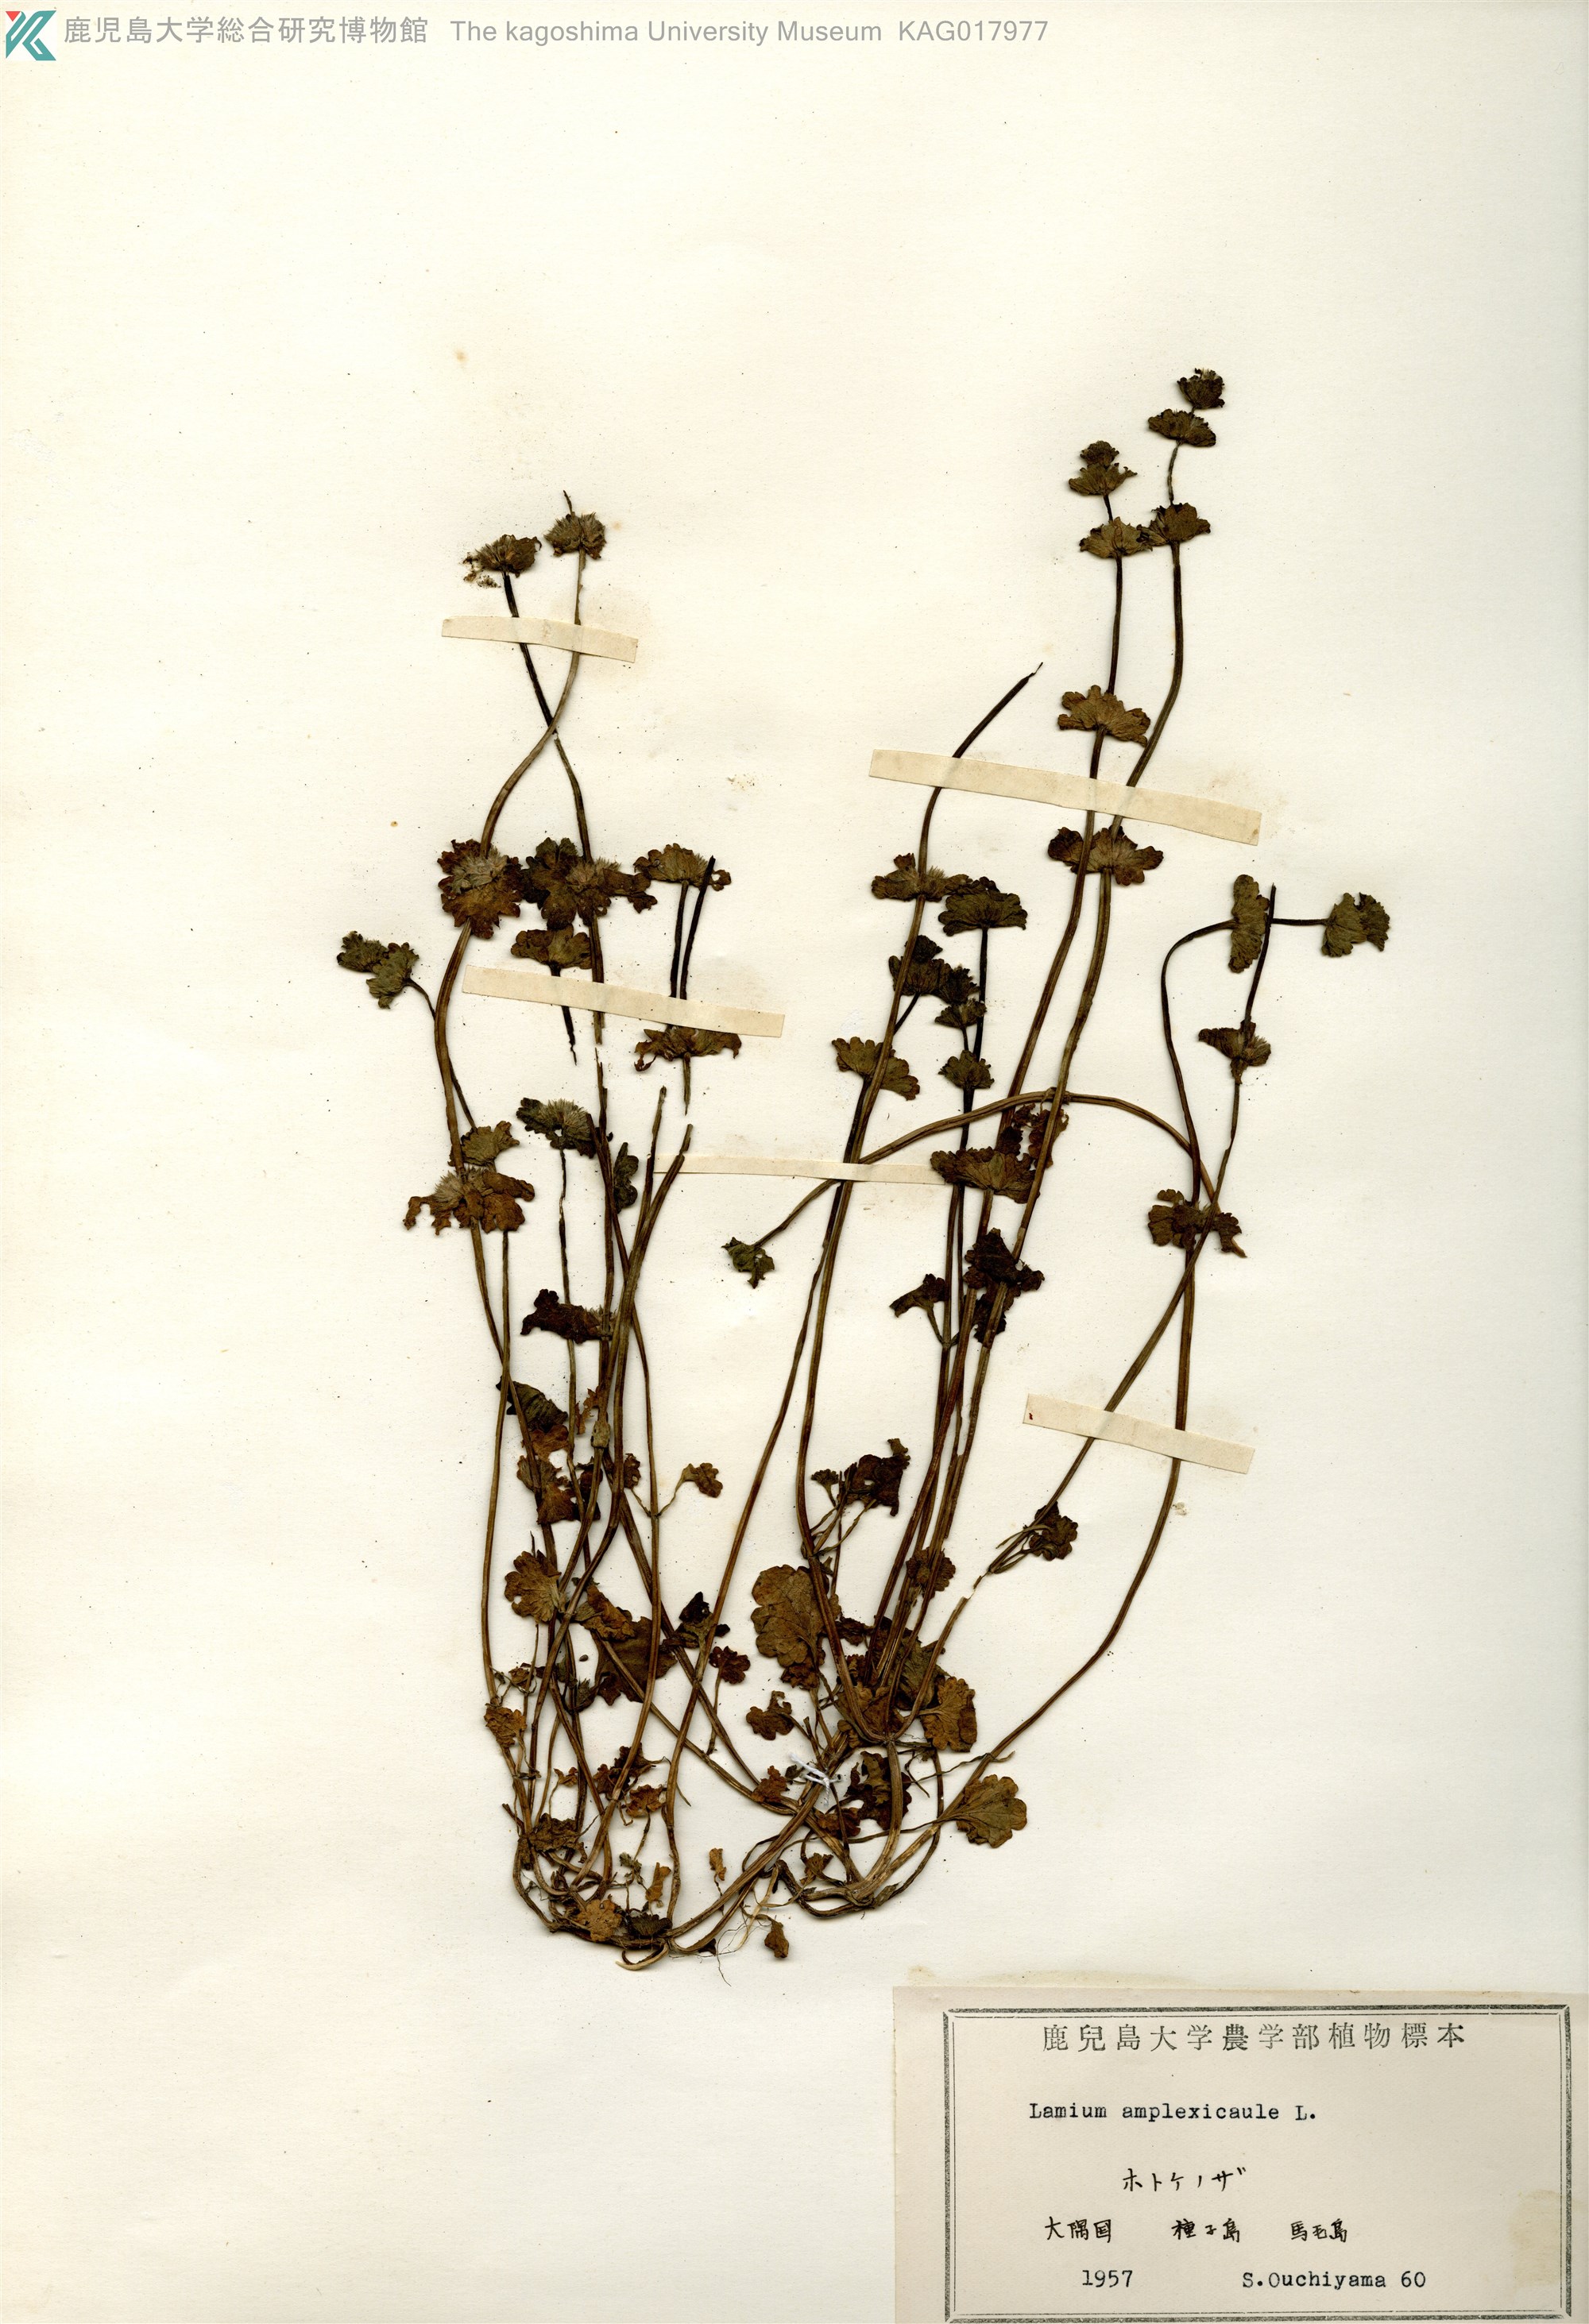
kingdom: Plantae
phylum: Tracheophyta
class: Magnoliopsida
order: Lamiales
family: Lamiaceae
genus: Lamium
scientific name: Lamium amplexicaule
